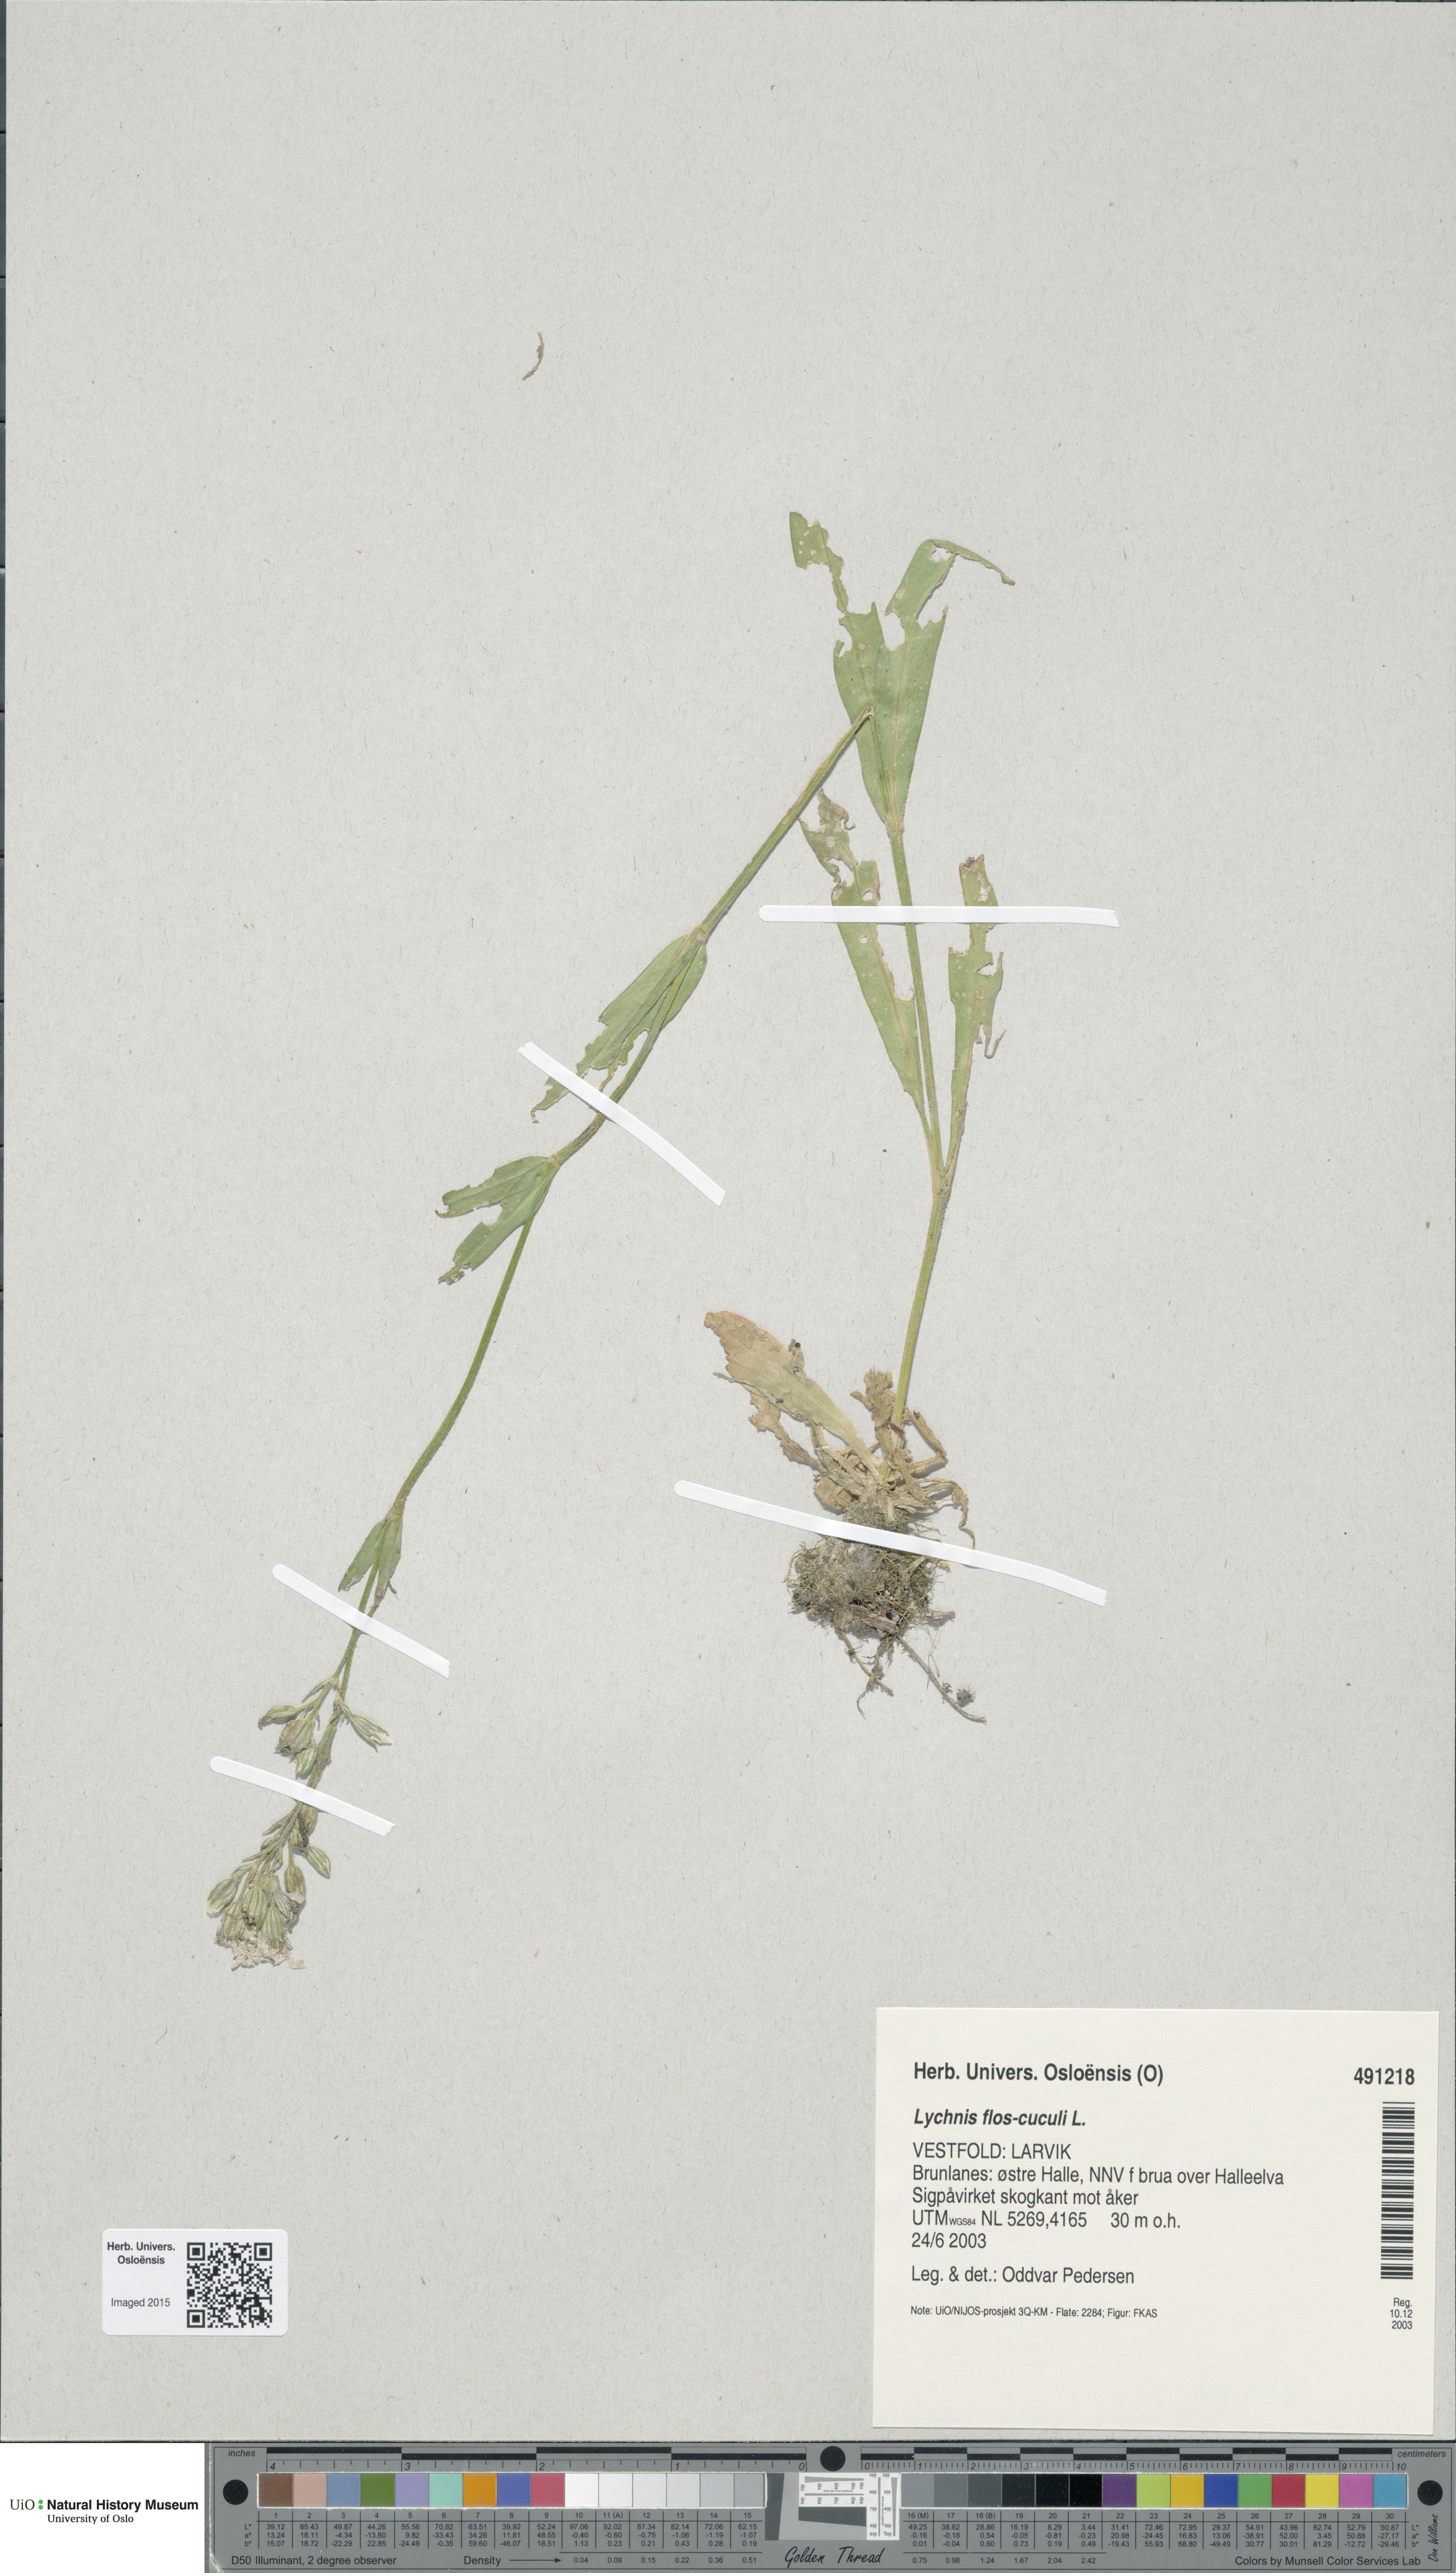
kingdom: Plantae
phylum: Tracheophyta
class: Magnoliopsida
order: Caryophyllales
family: Caryophyllaceae
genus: Silene
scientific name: Silene flos-cuculi
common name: Ragged-robin
